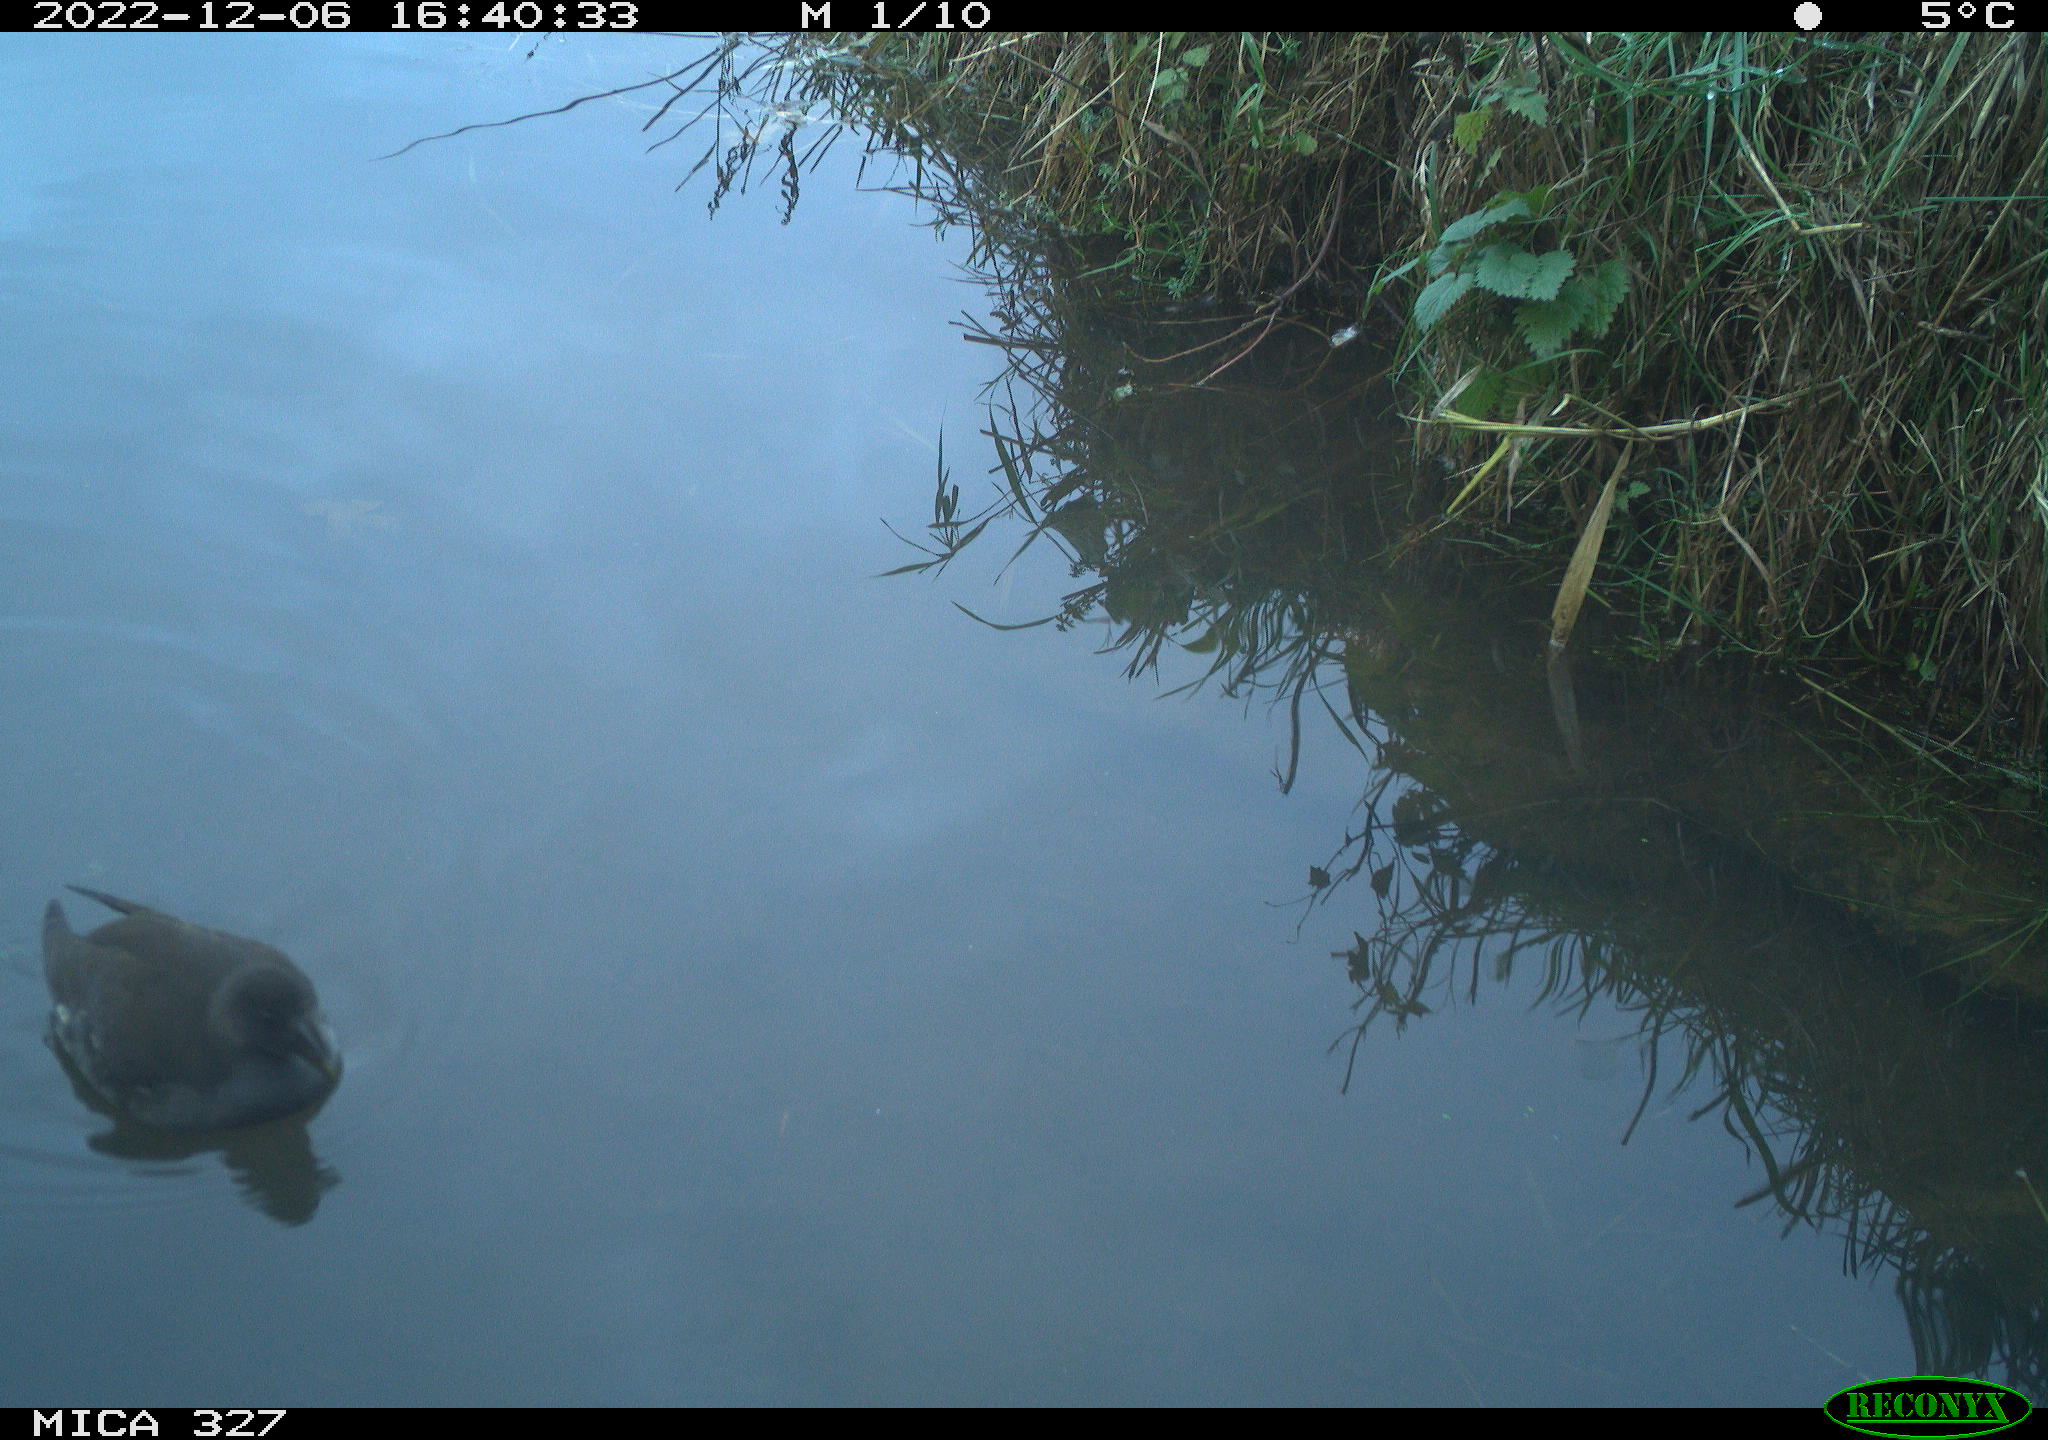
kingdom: Animalia
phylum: Chordata
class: Aves
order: Gruiformes
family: Rallidae
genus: Gallinula
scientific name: Gallinula chloropus
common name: Common moorhen
